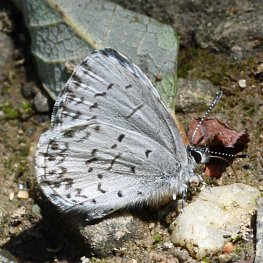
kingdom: Animalia
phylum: Arthropoda
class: Insecta
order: Lepidoptera
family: Lycaenidae
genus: Cyaniris
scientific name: Cyaniris neglecta
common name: Summer Azure
